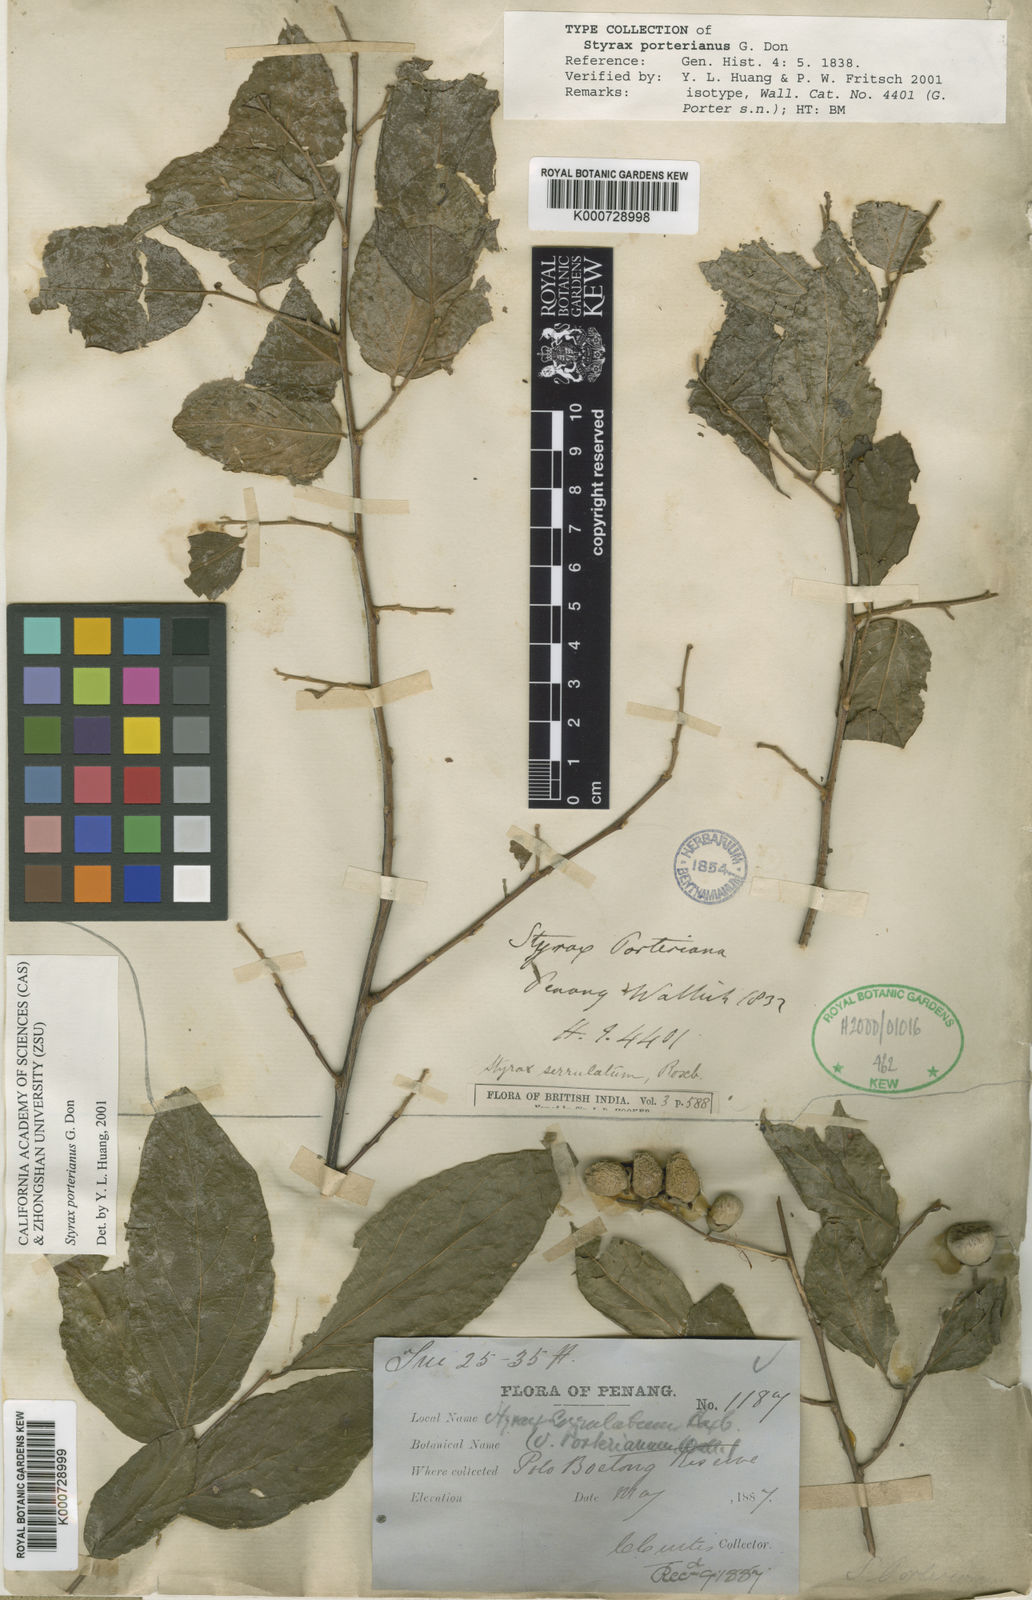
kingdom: Plantae
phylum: Tracheophyta
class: Magnoliopsida
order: Ericales
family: Styracaceae
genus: Styrax
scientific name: Styrax
